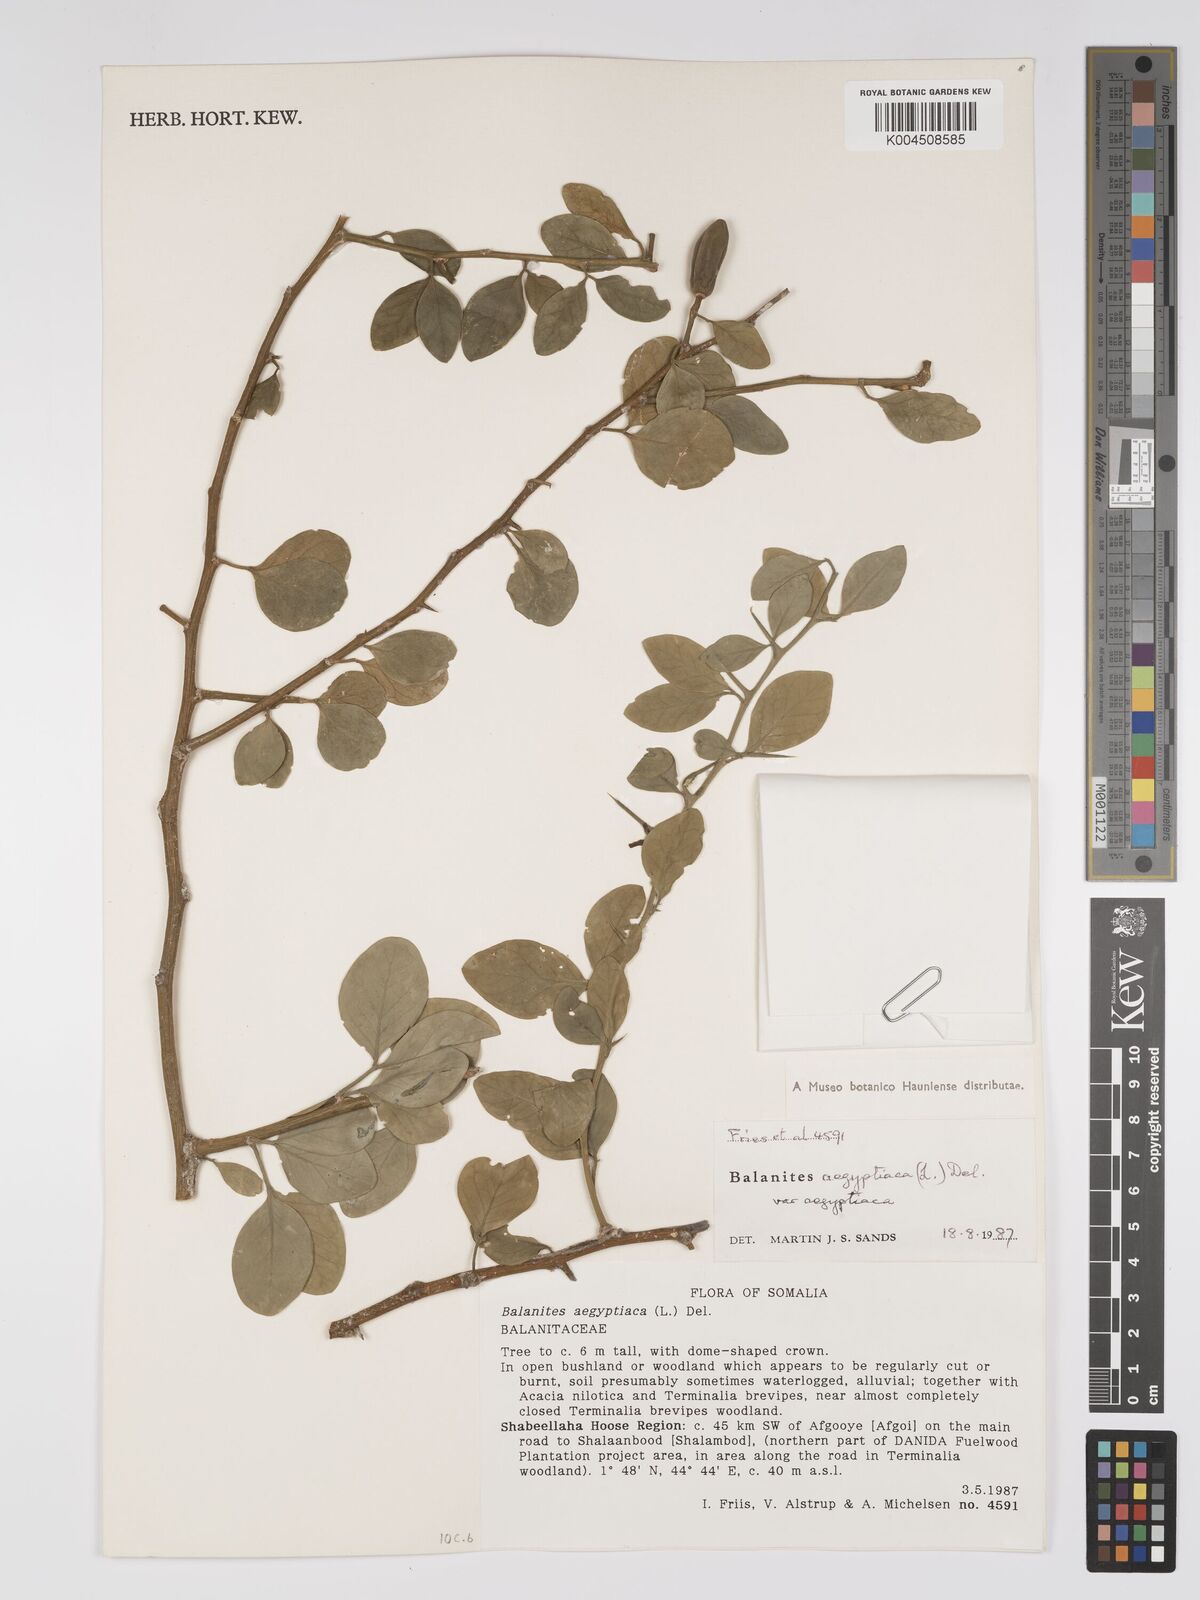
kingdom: Plantae
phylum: Tracheophyta
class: Magnoliopsida
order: Zygophyllales
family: Zygophyllaceae
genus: Balanites
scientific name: Balanites aegyptiaca
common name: Balanites
